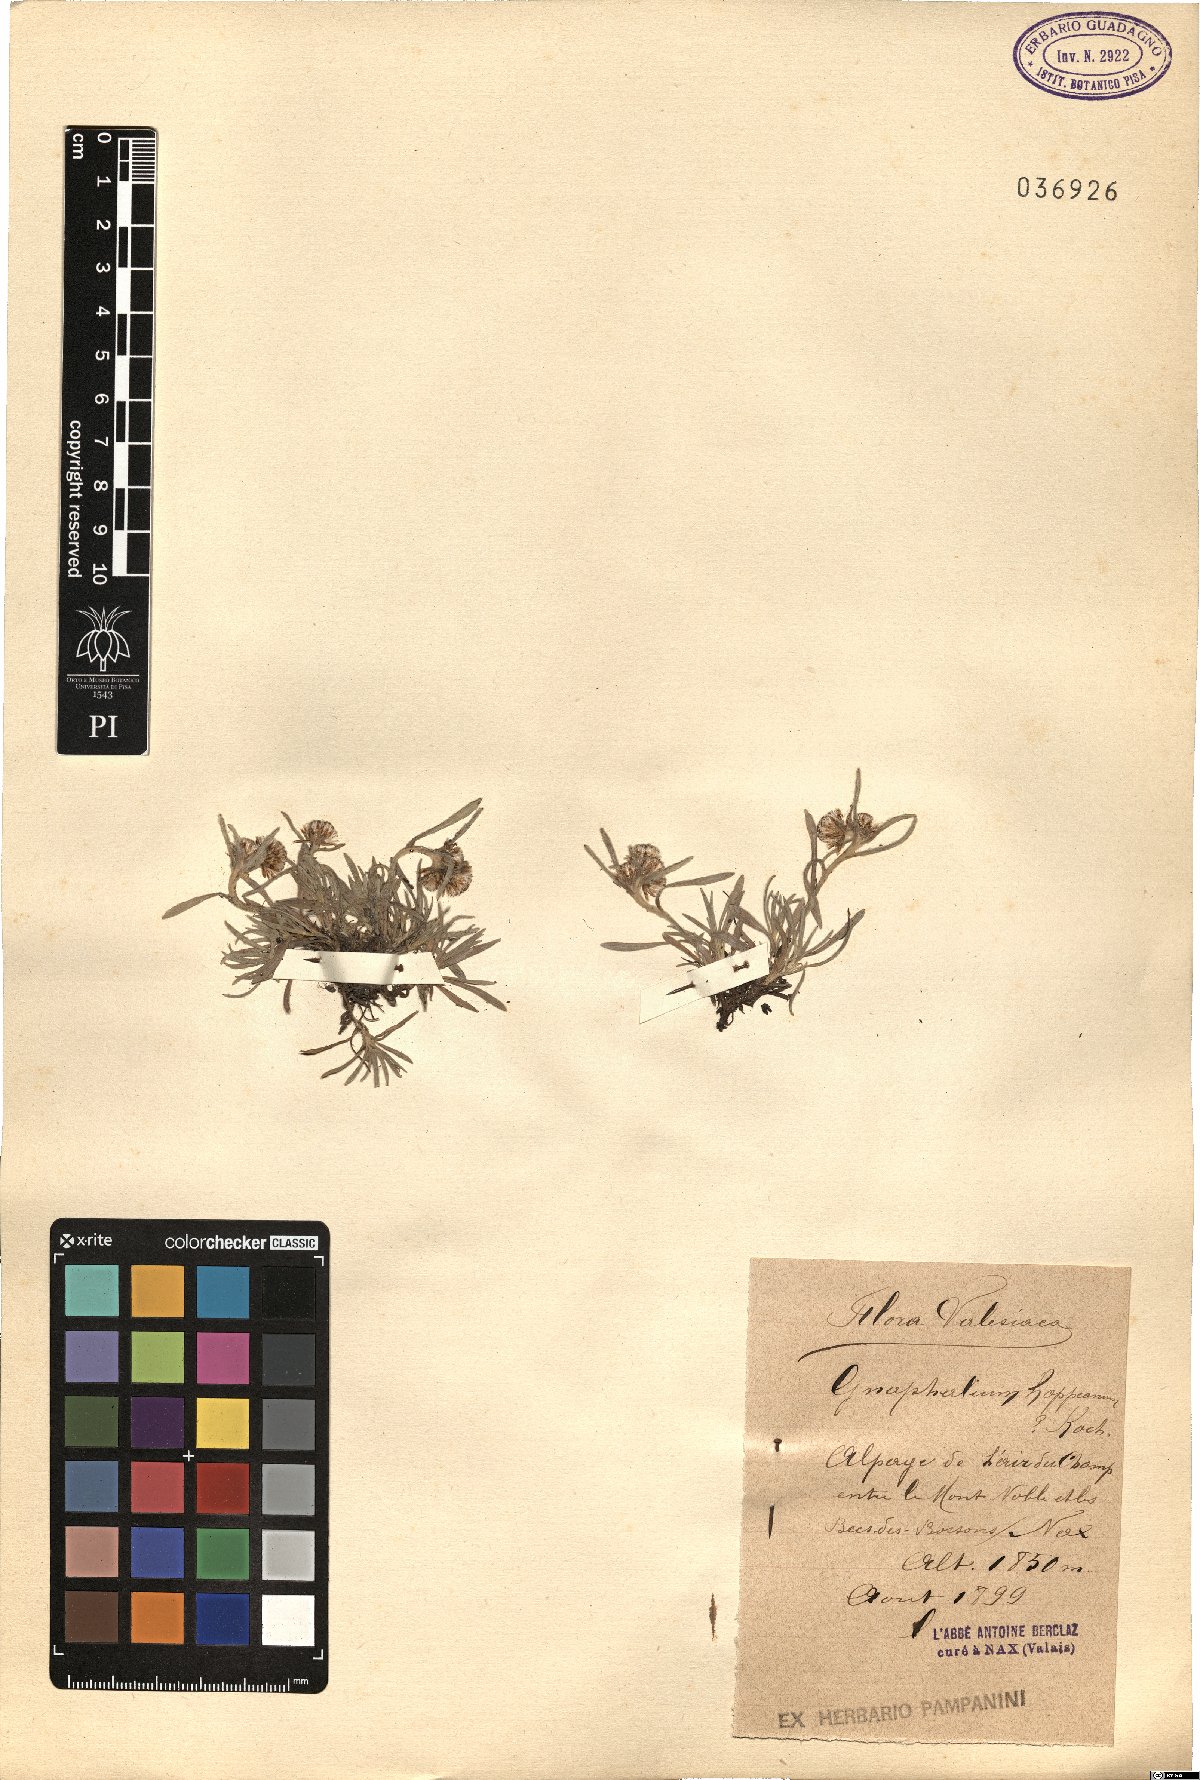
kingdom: Plantae
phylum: Tracheophyta
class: Magnoliopsida
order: Asterales
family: Asteraceae
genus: Omalotheca
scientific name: Omalotheca hoppeana
